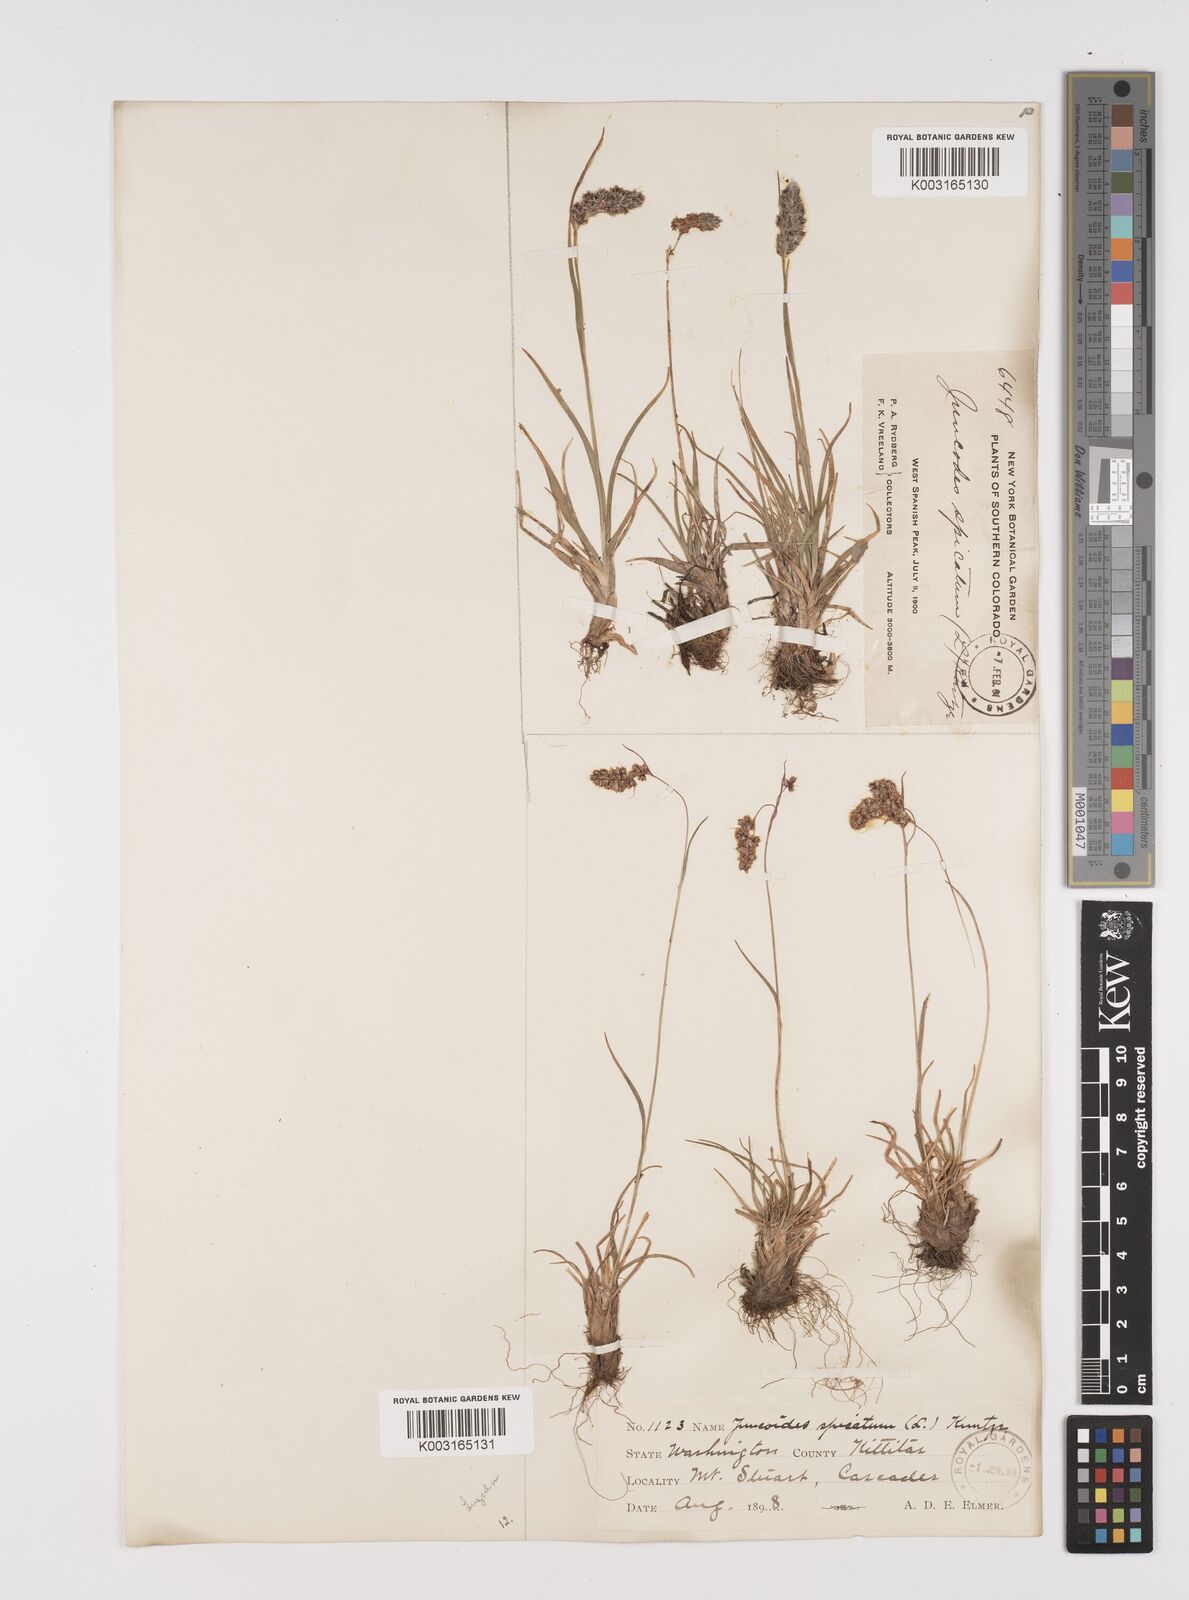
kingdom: Plantae
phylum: Tracheophyta
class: Liliopsida
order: Poales
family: Juncaceae
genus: Luzula
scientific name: Luzula spicata
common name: Spiked wood-rush
